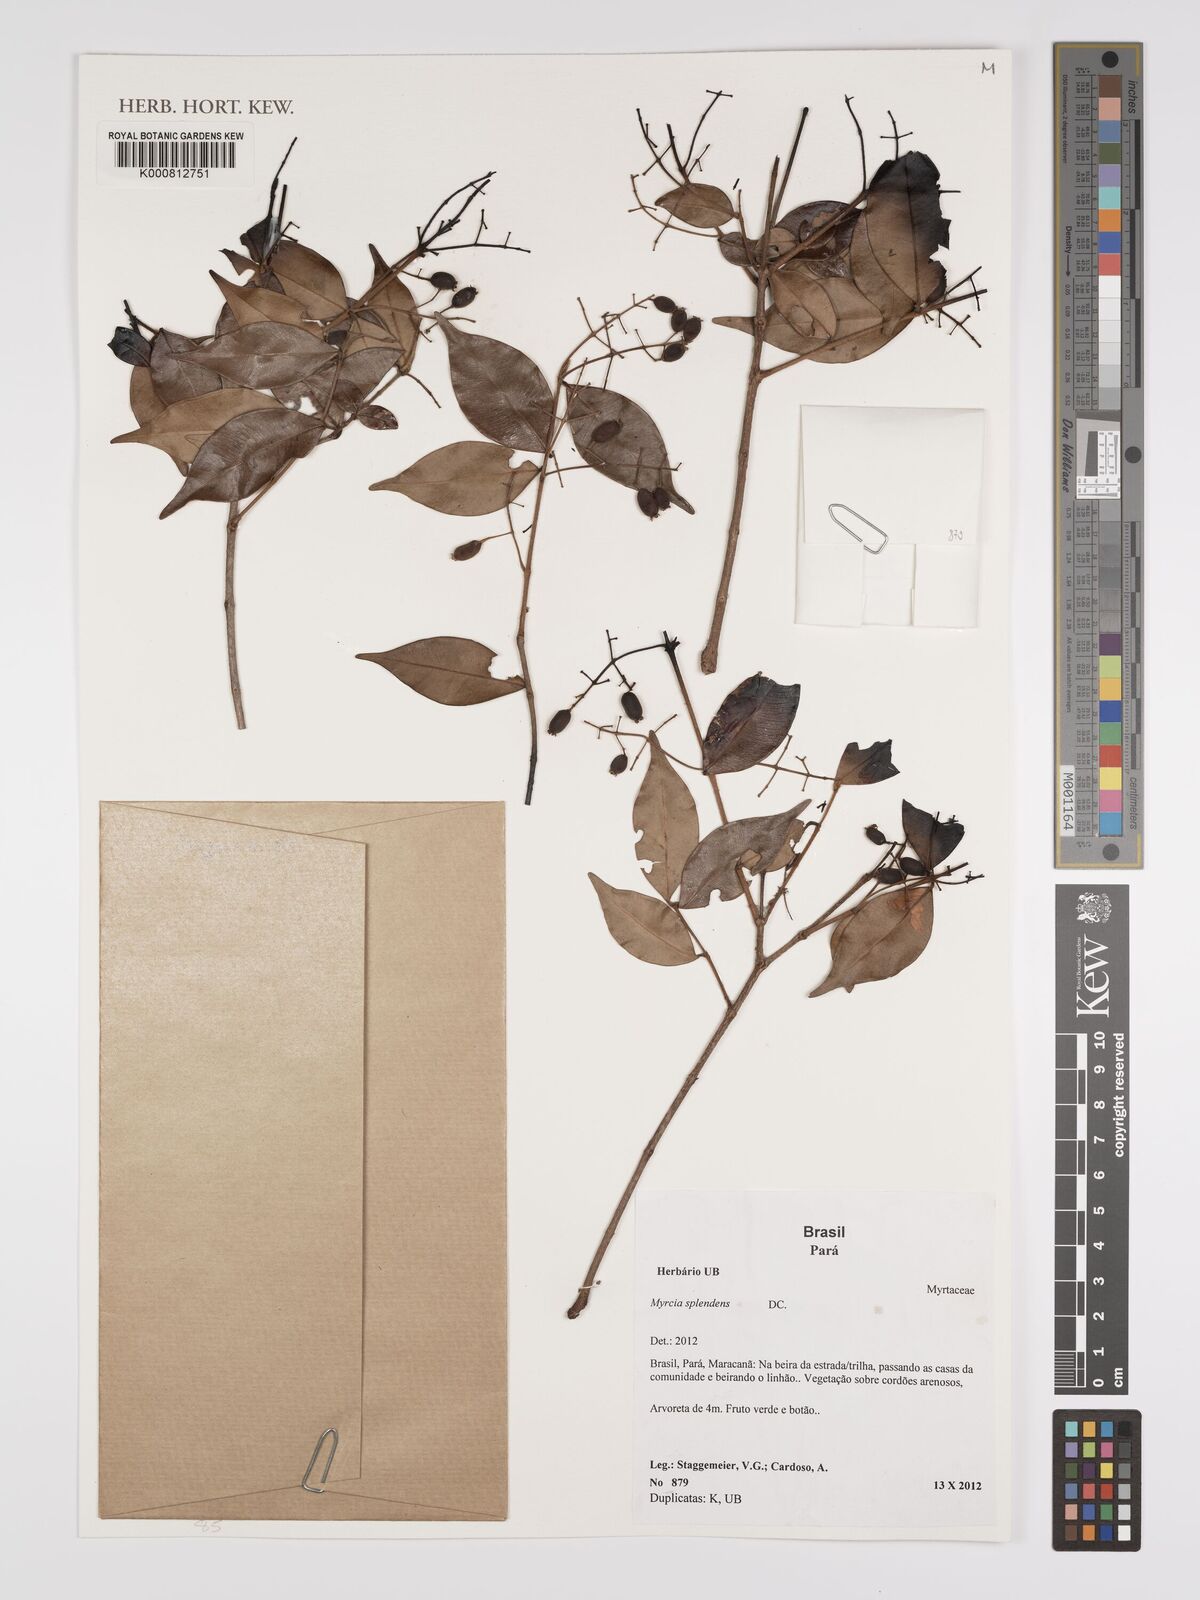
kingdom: Plantae
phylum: Tracheophyta
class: Magnoliopsida
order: Myrtales
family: Myrtaceae
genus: Myrcia
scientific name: Myrcia splendens
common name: Surinam cherry
